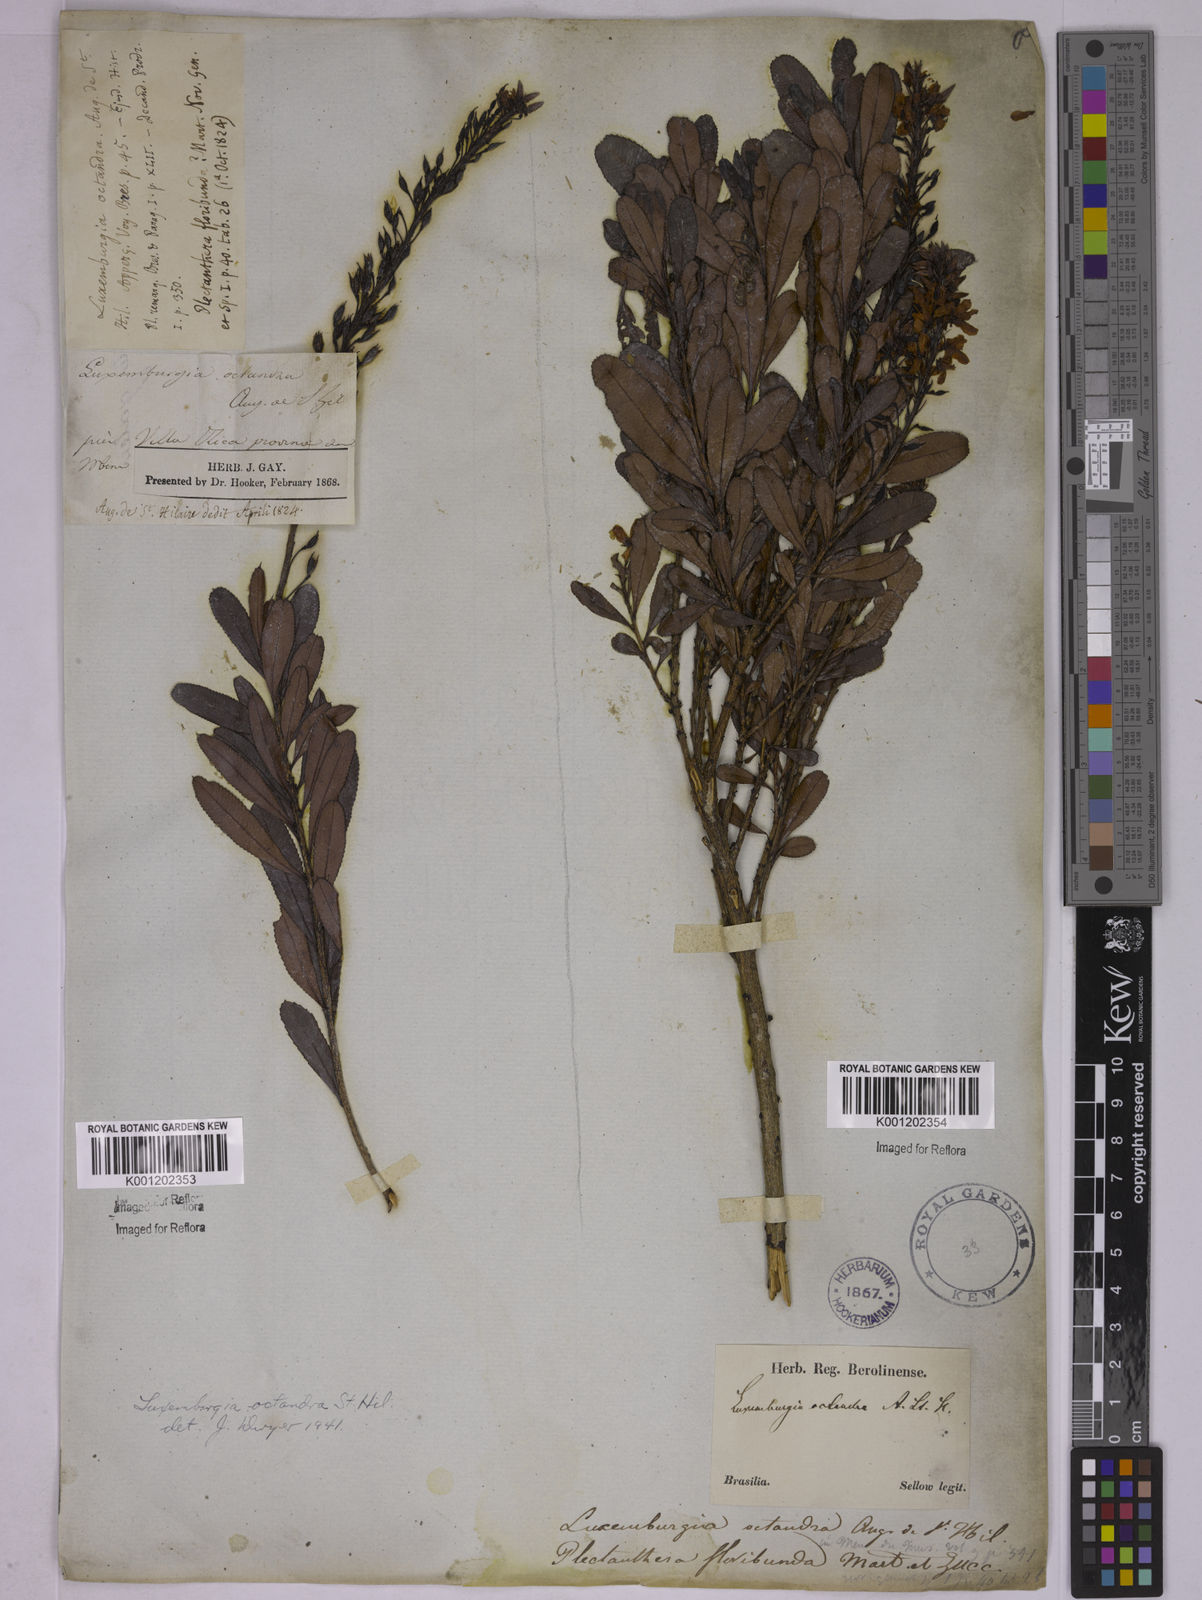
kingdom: Plantae
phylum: Tracheophyta
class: Magnoliopsida
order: Malpighiales
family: Ochnaceae
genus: Luxemburgia
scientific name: Luxemburgia octandra
